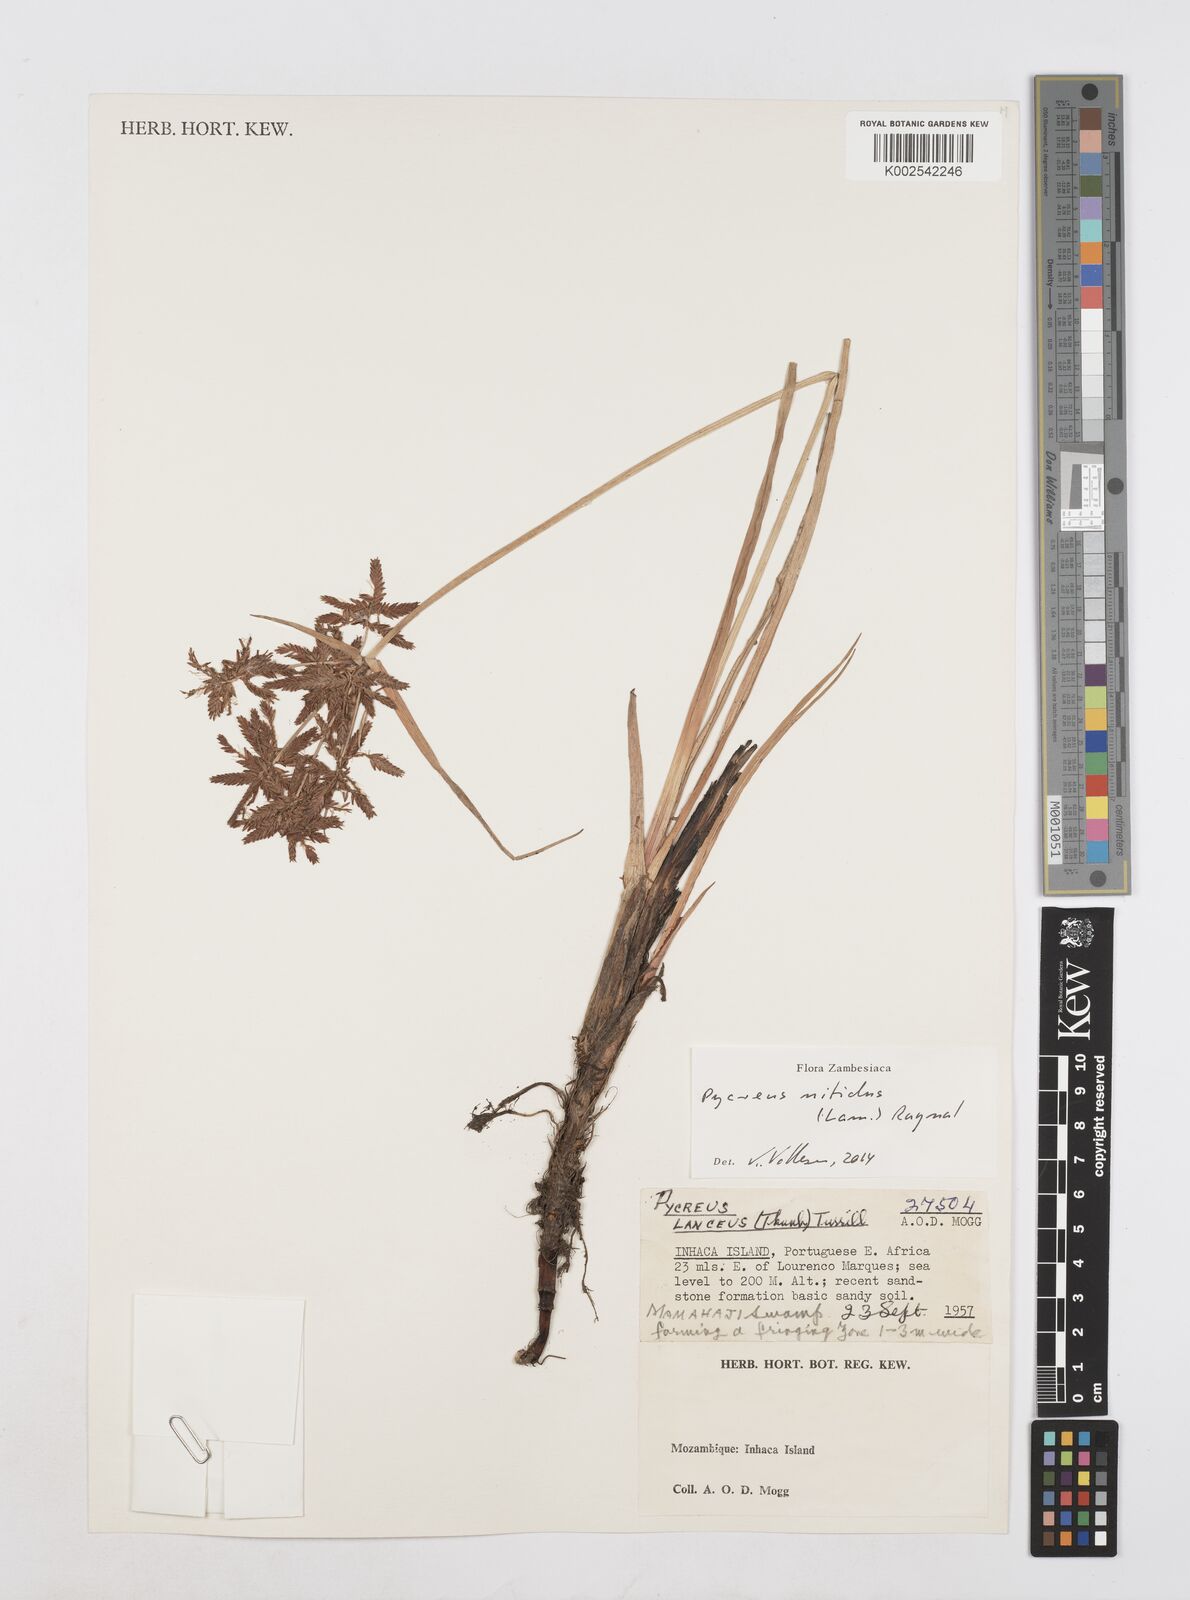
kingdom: Plantae
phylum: Tracheophyta
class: Liliopsida
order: Poales
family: Cyperaceae
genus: Cyperus
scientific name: Cyperus nitidus
